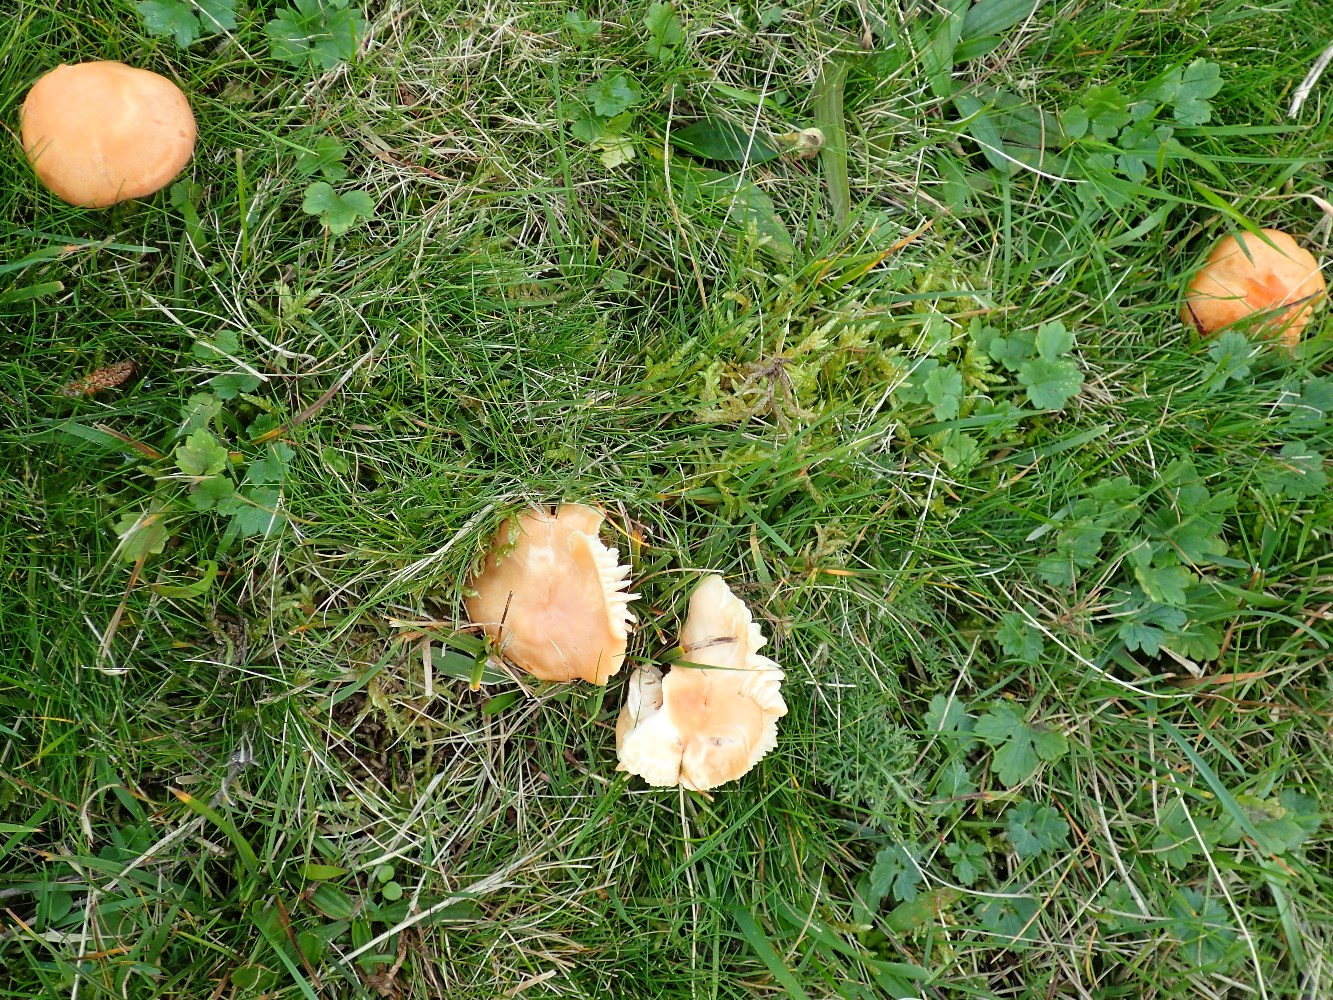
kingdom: Fungi
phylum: Basidiomycota
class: Agaricomycetes
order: Agaricales
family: Hygrophoraceae
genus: Cuphophyllus
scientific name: Cuphophyllus pratensis
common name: eng-vokshat
